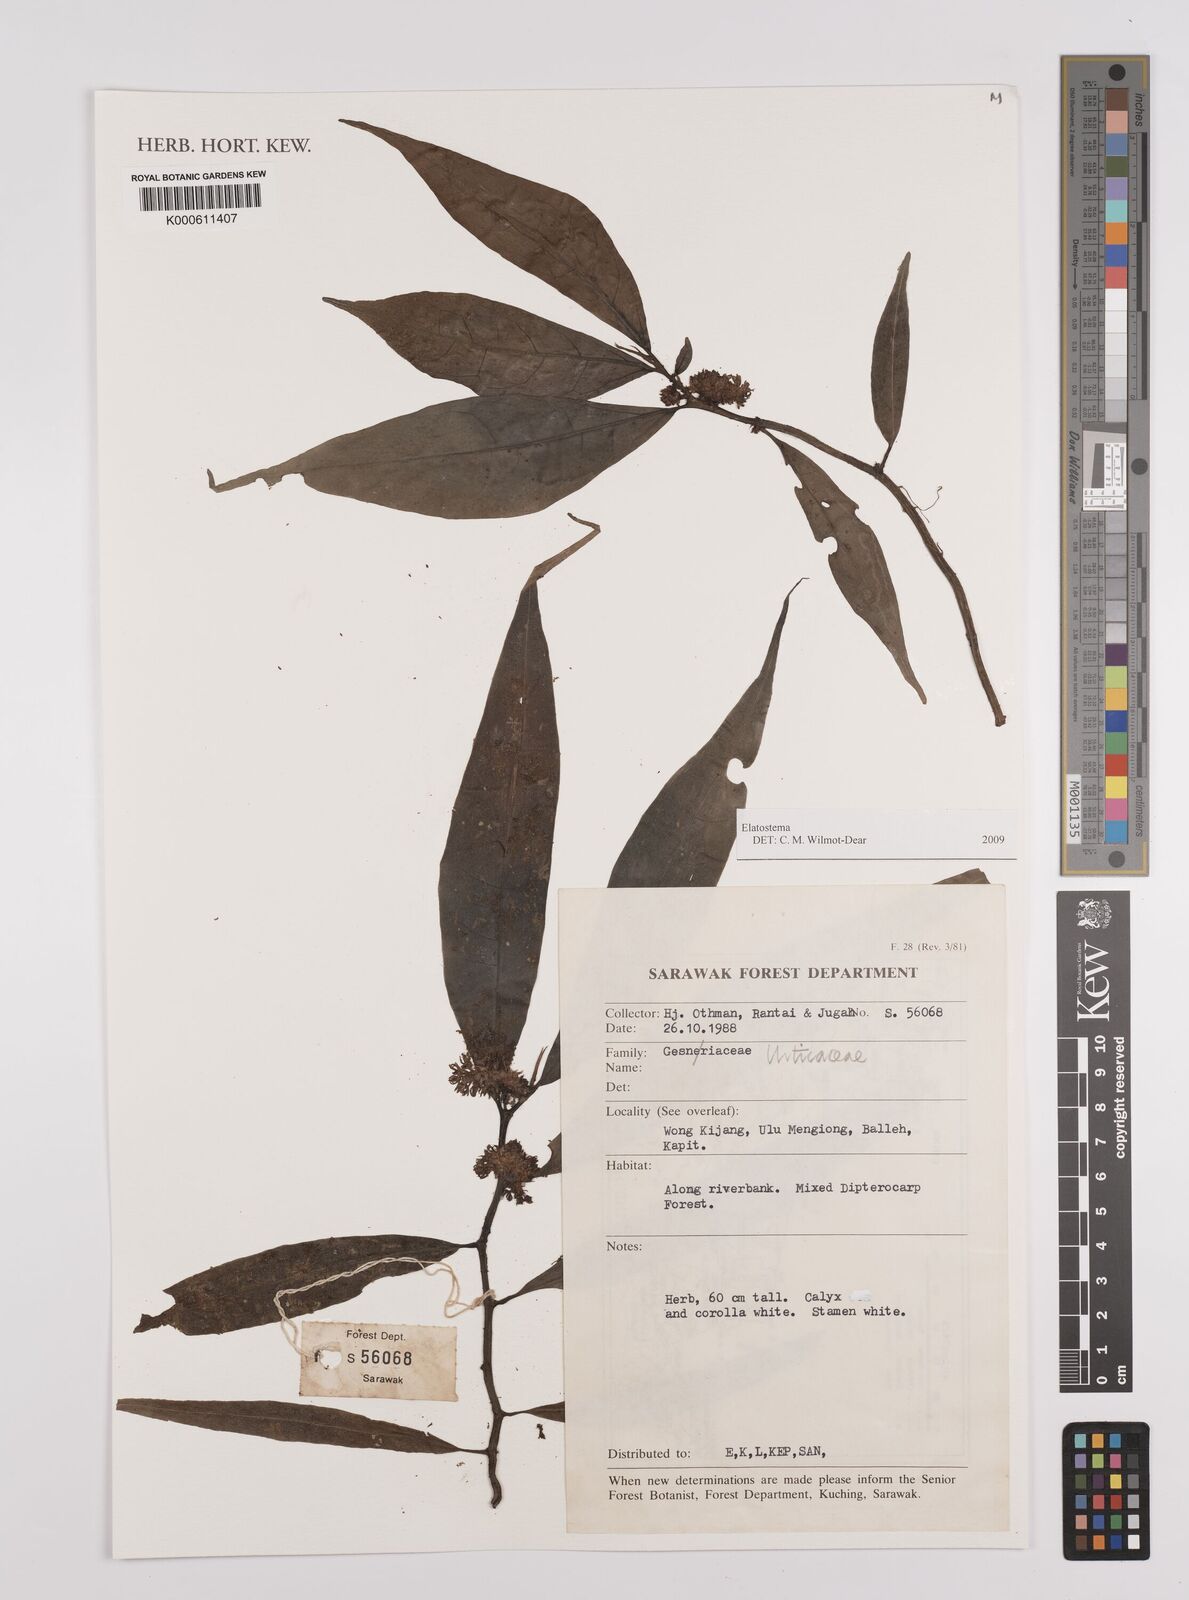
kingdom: Plantae
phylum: Tracheophyta
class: Magnoliopsida
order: Rosales
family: Urticaceae
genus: Elatostema
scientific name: Elatostema
